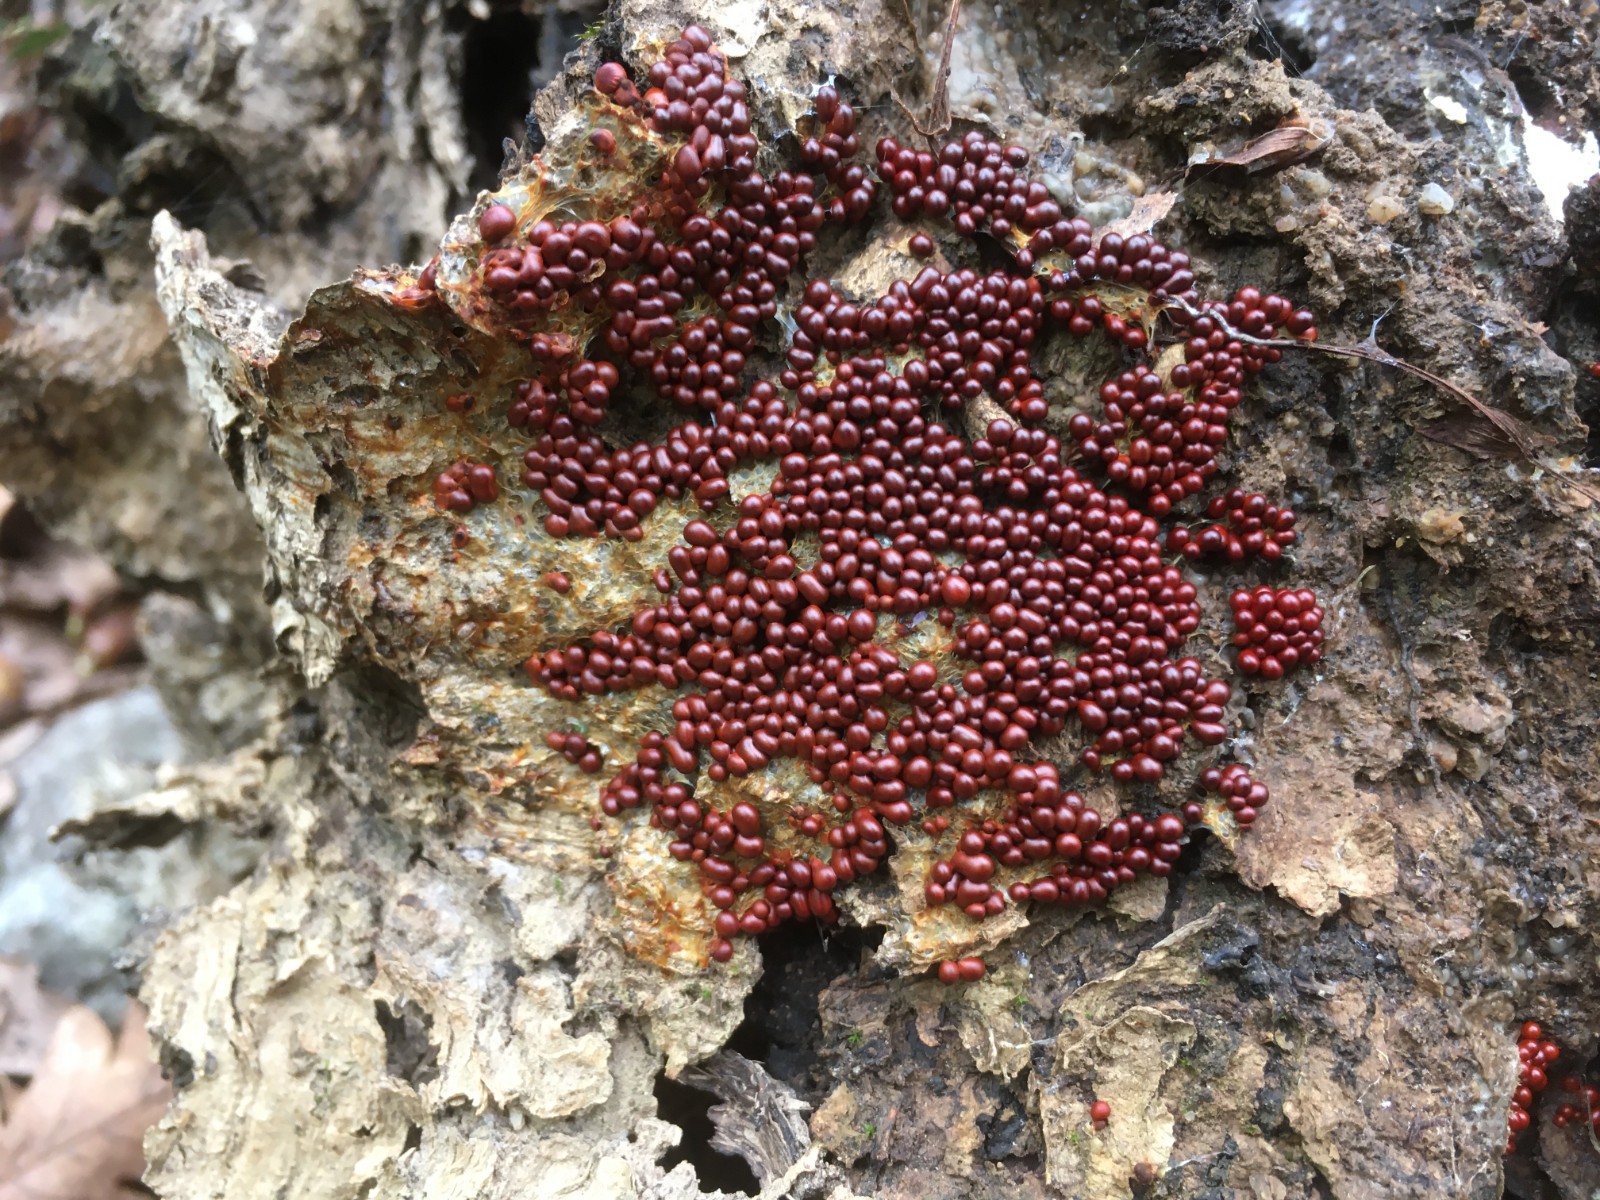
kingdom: Protozoa
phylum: Mycetozoa
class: Myxomycetes
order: Physarales
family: Physaraceae
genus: Leocarpus
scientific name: Leocarpus fragilis
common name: poleret glatfrø
